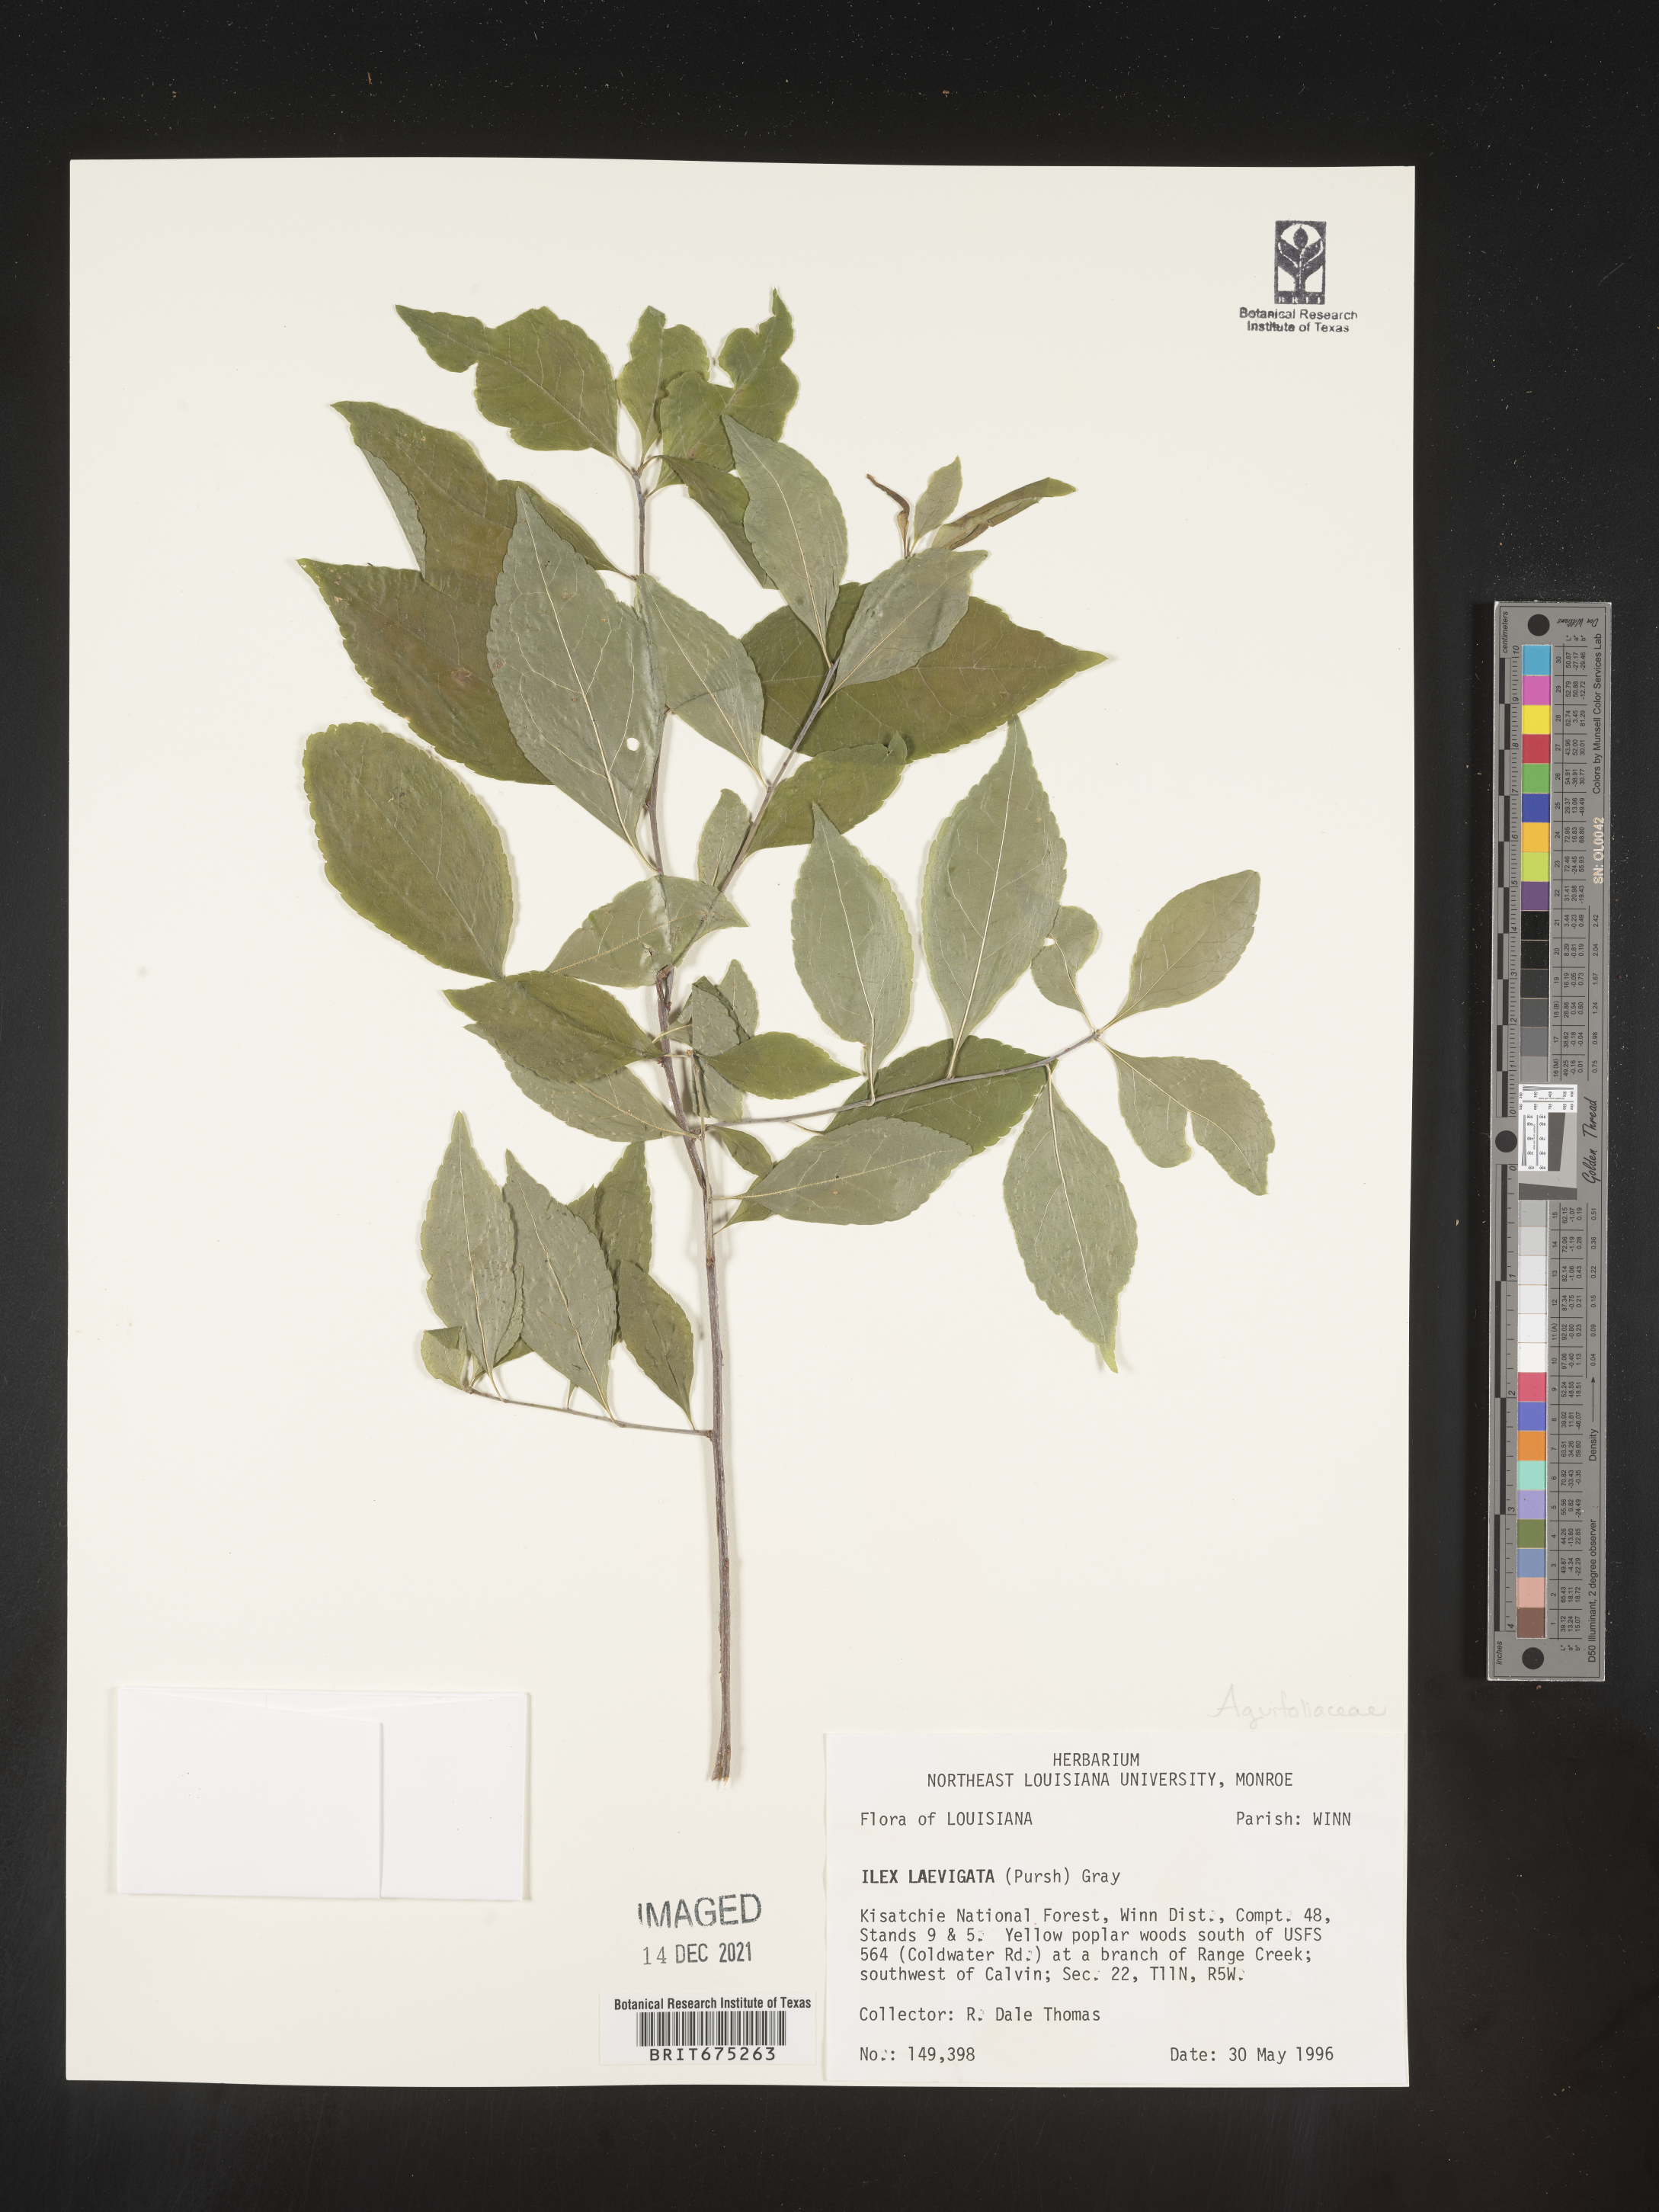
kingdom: Plantae
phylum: Tracheophyta
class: Magnoliopsida
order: Aquifoliales
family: Aquifoliaceae
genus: Ilex
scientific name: Ilex laevigata
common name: Smooth winterberry
